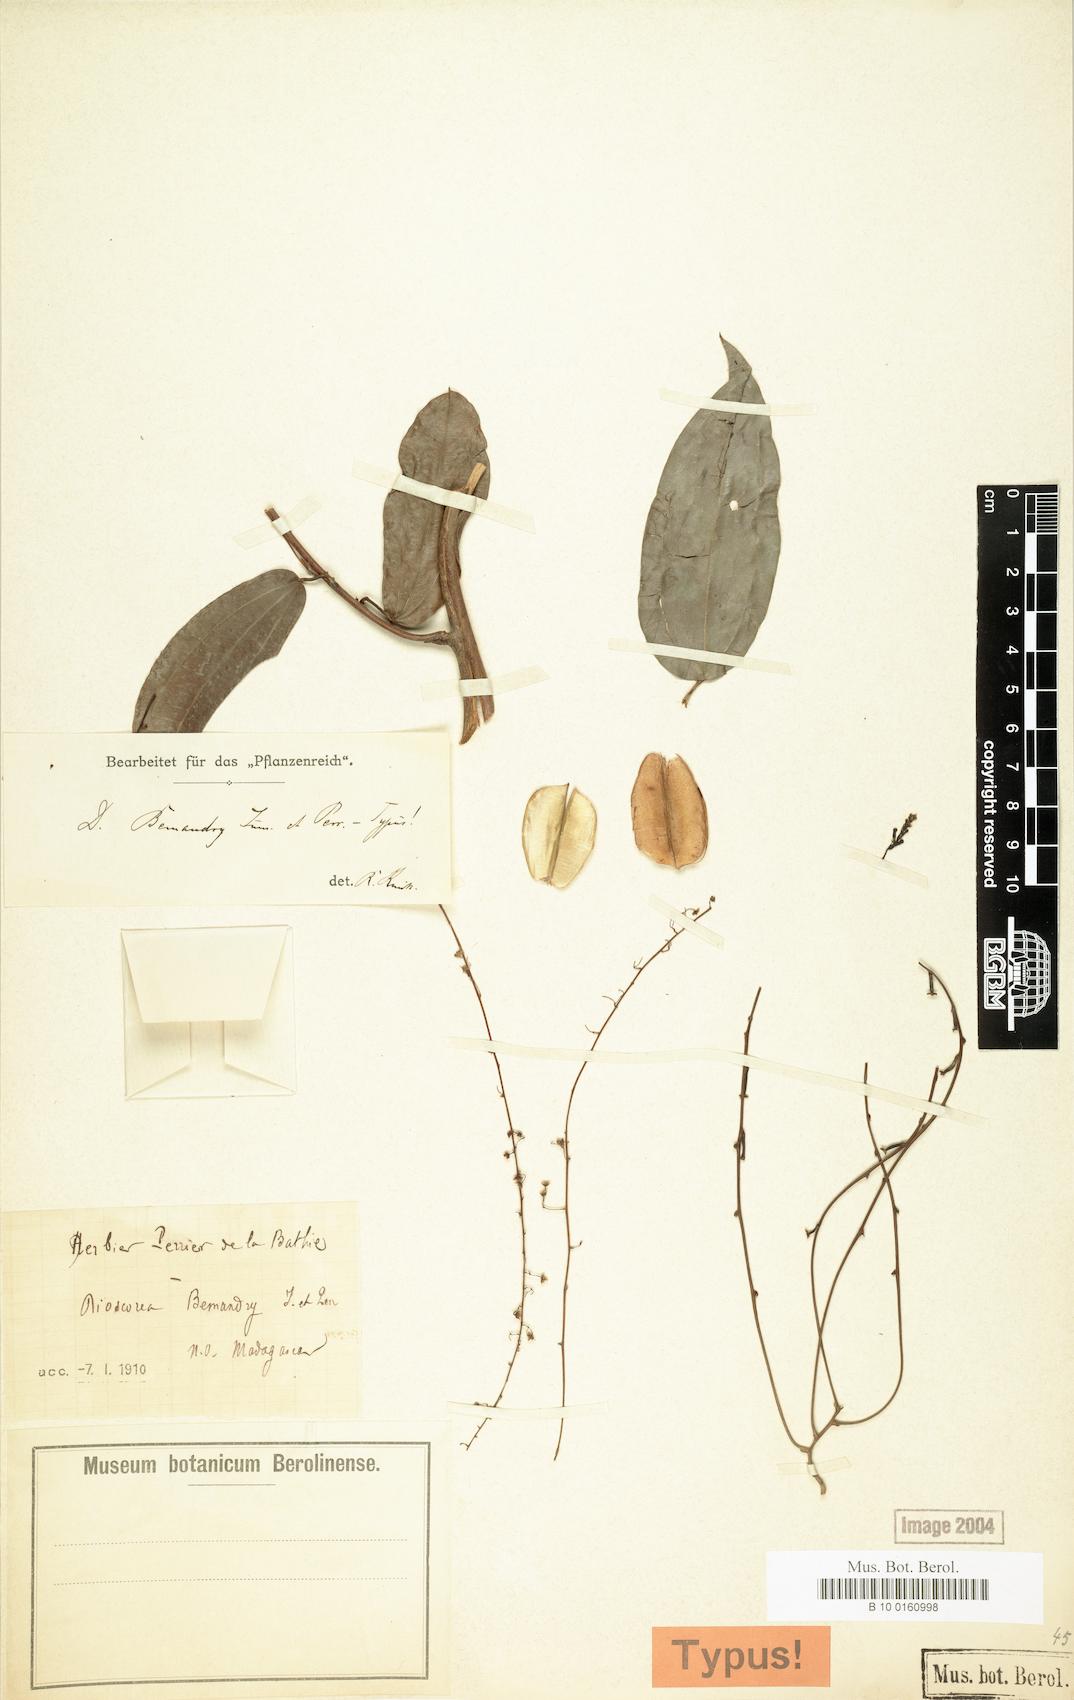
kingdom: Plantae
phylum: Tracheophyta
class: Liliopsida
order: Dioscoreales
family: Dioscoreaceae
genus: Dioscorea
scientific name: Dioscorea bemandry
